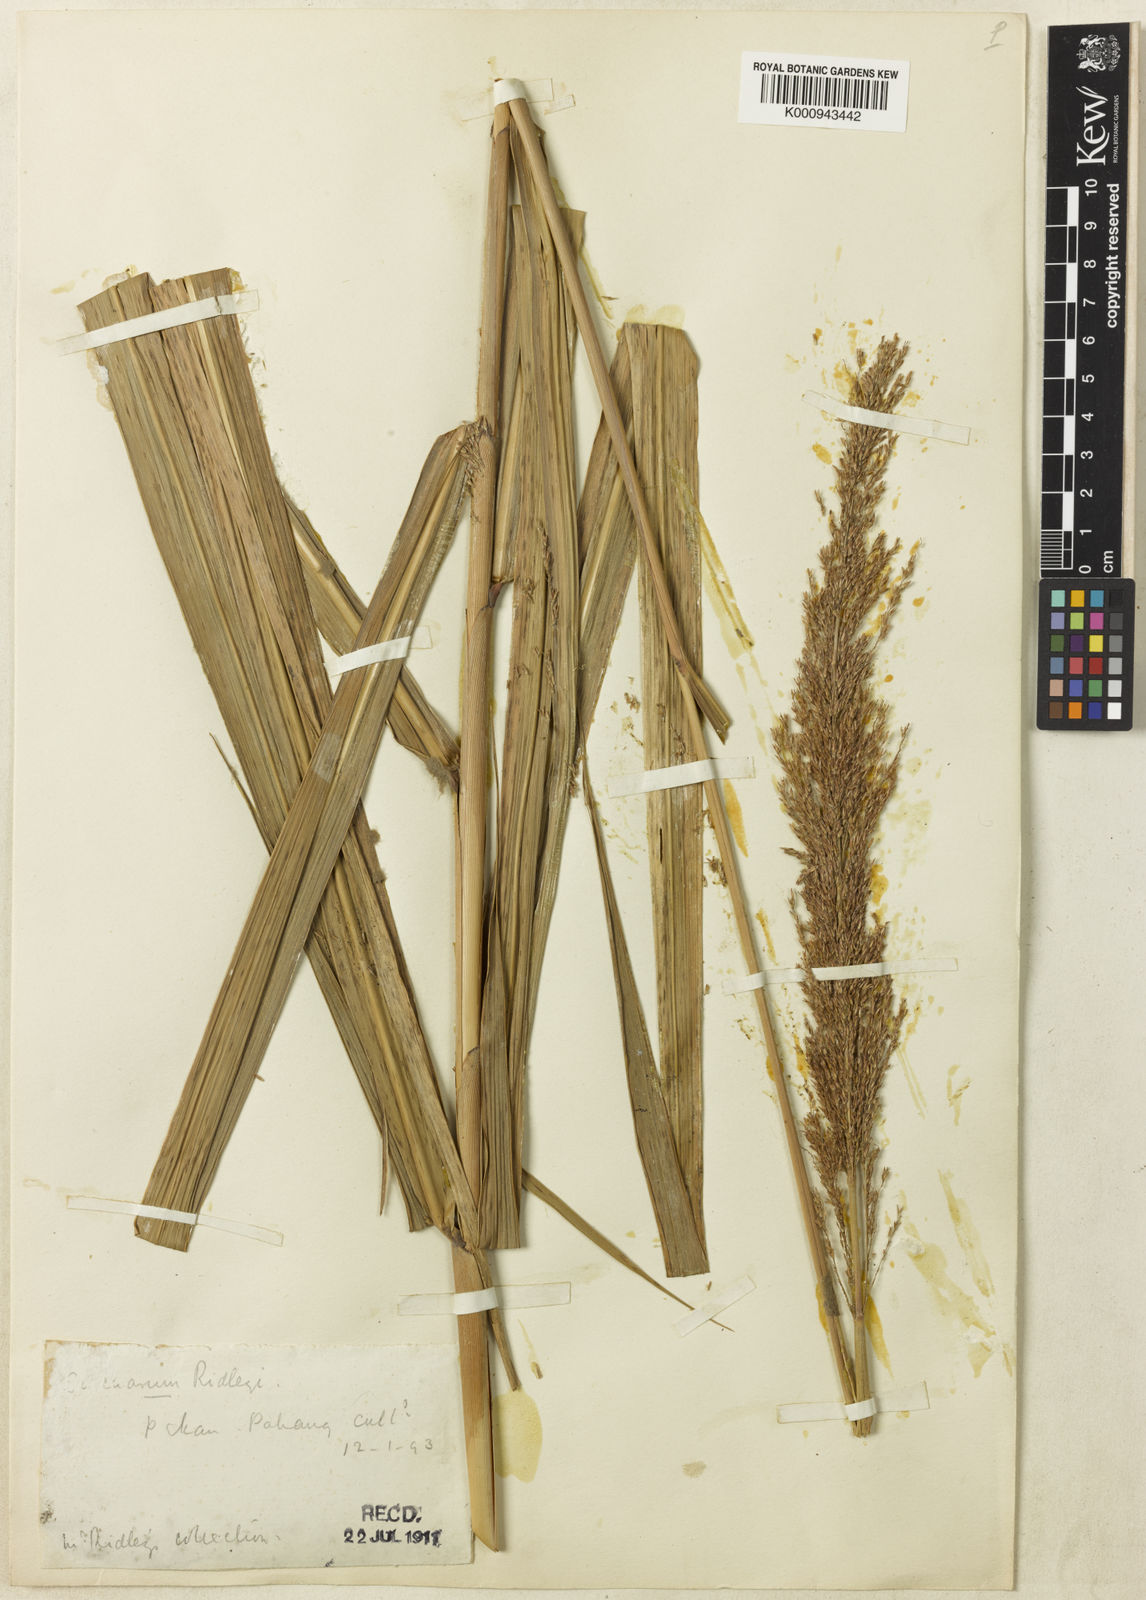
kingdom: Plantae
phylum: Tracheophyta
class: Liliopsida
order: Poales
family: Poaceae
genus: Miscanthus
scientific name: Miscanthus fuscus
